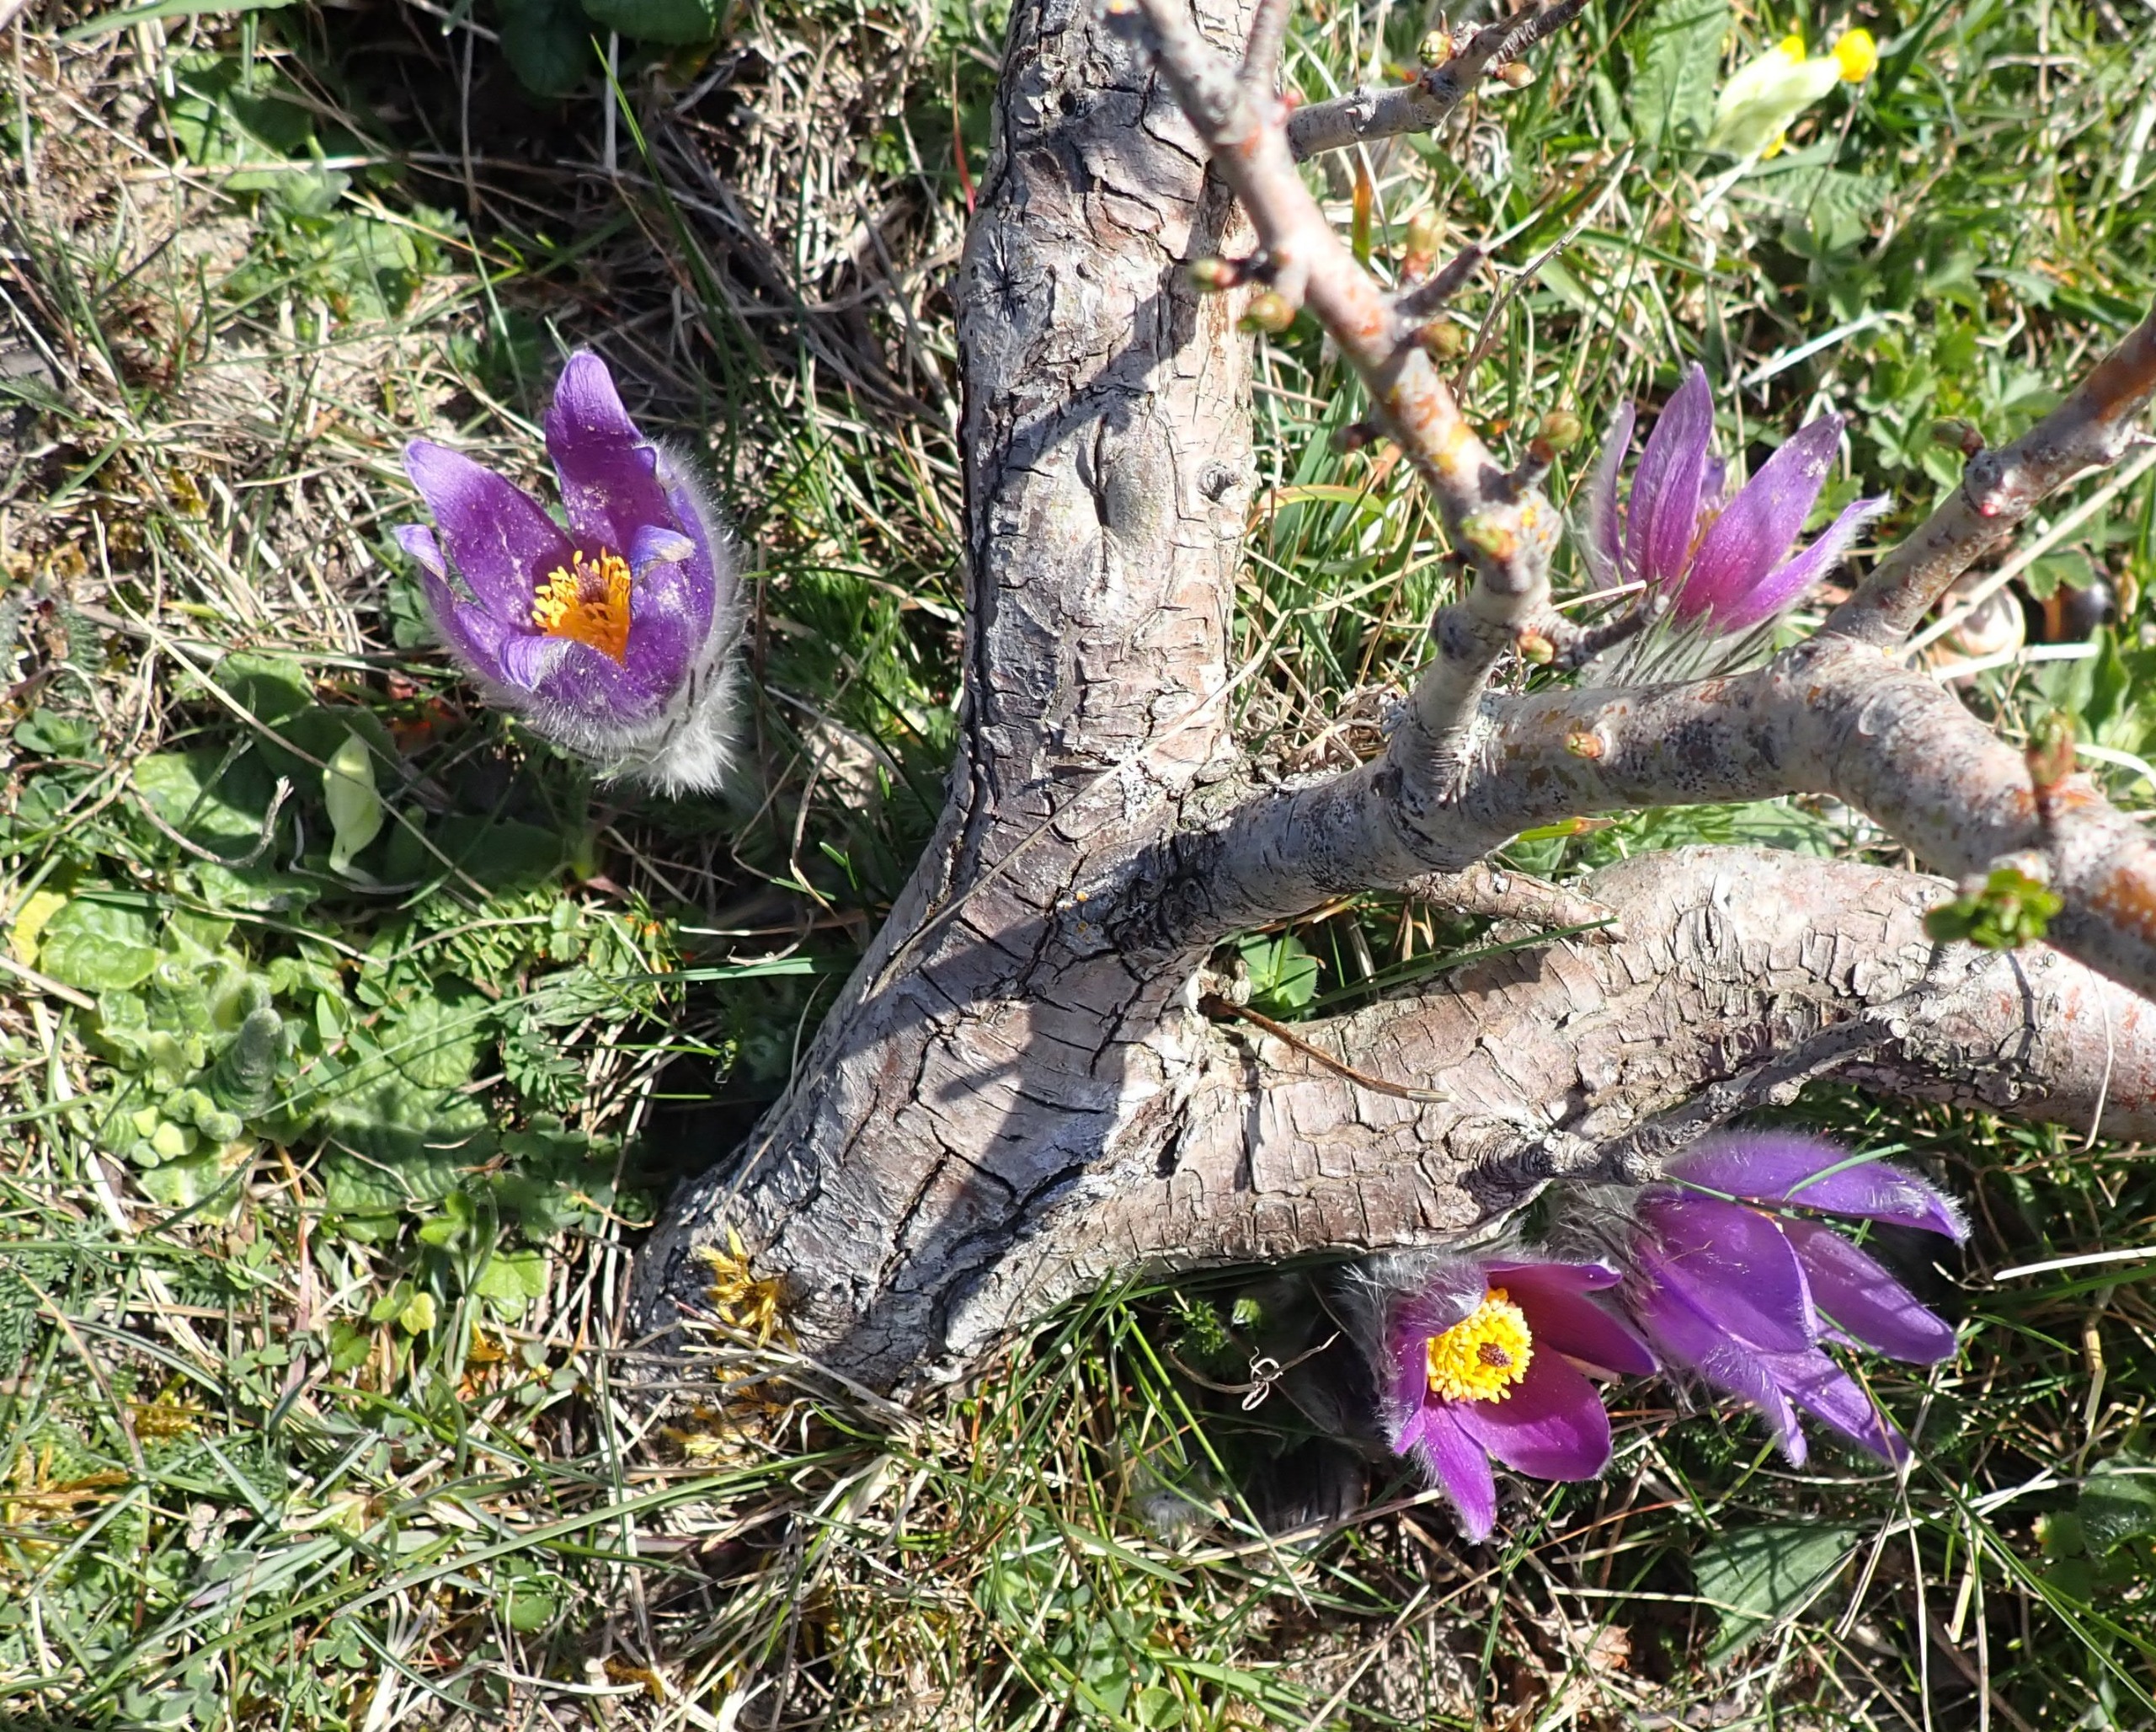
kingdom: Plantae
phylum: Tracheophyta
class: Magnoliopsida
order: Ranunculales
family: Ranunculaceae
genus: Pulsatilla
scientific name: Pulsatilla vulgaris
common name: Opret kobjælde
